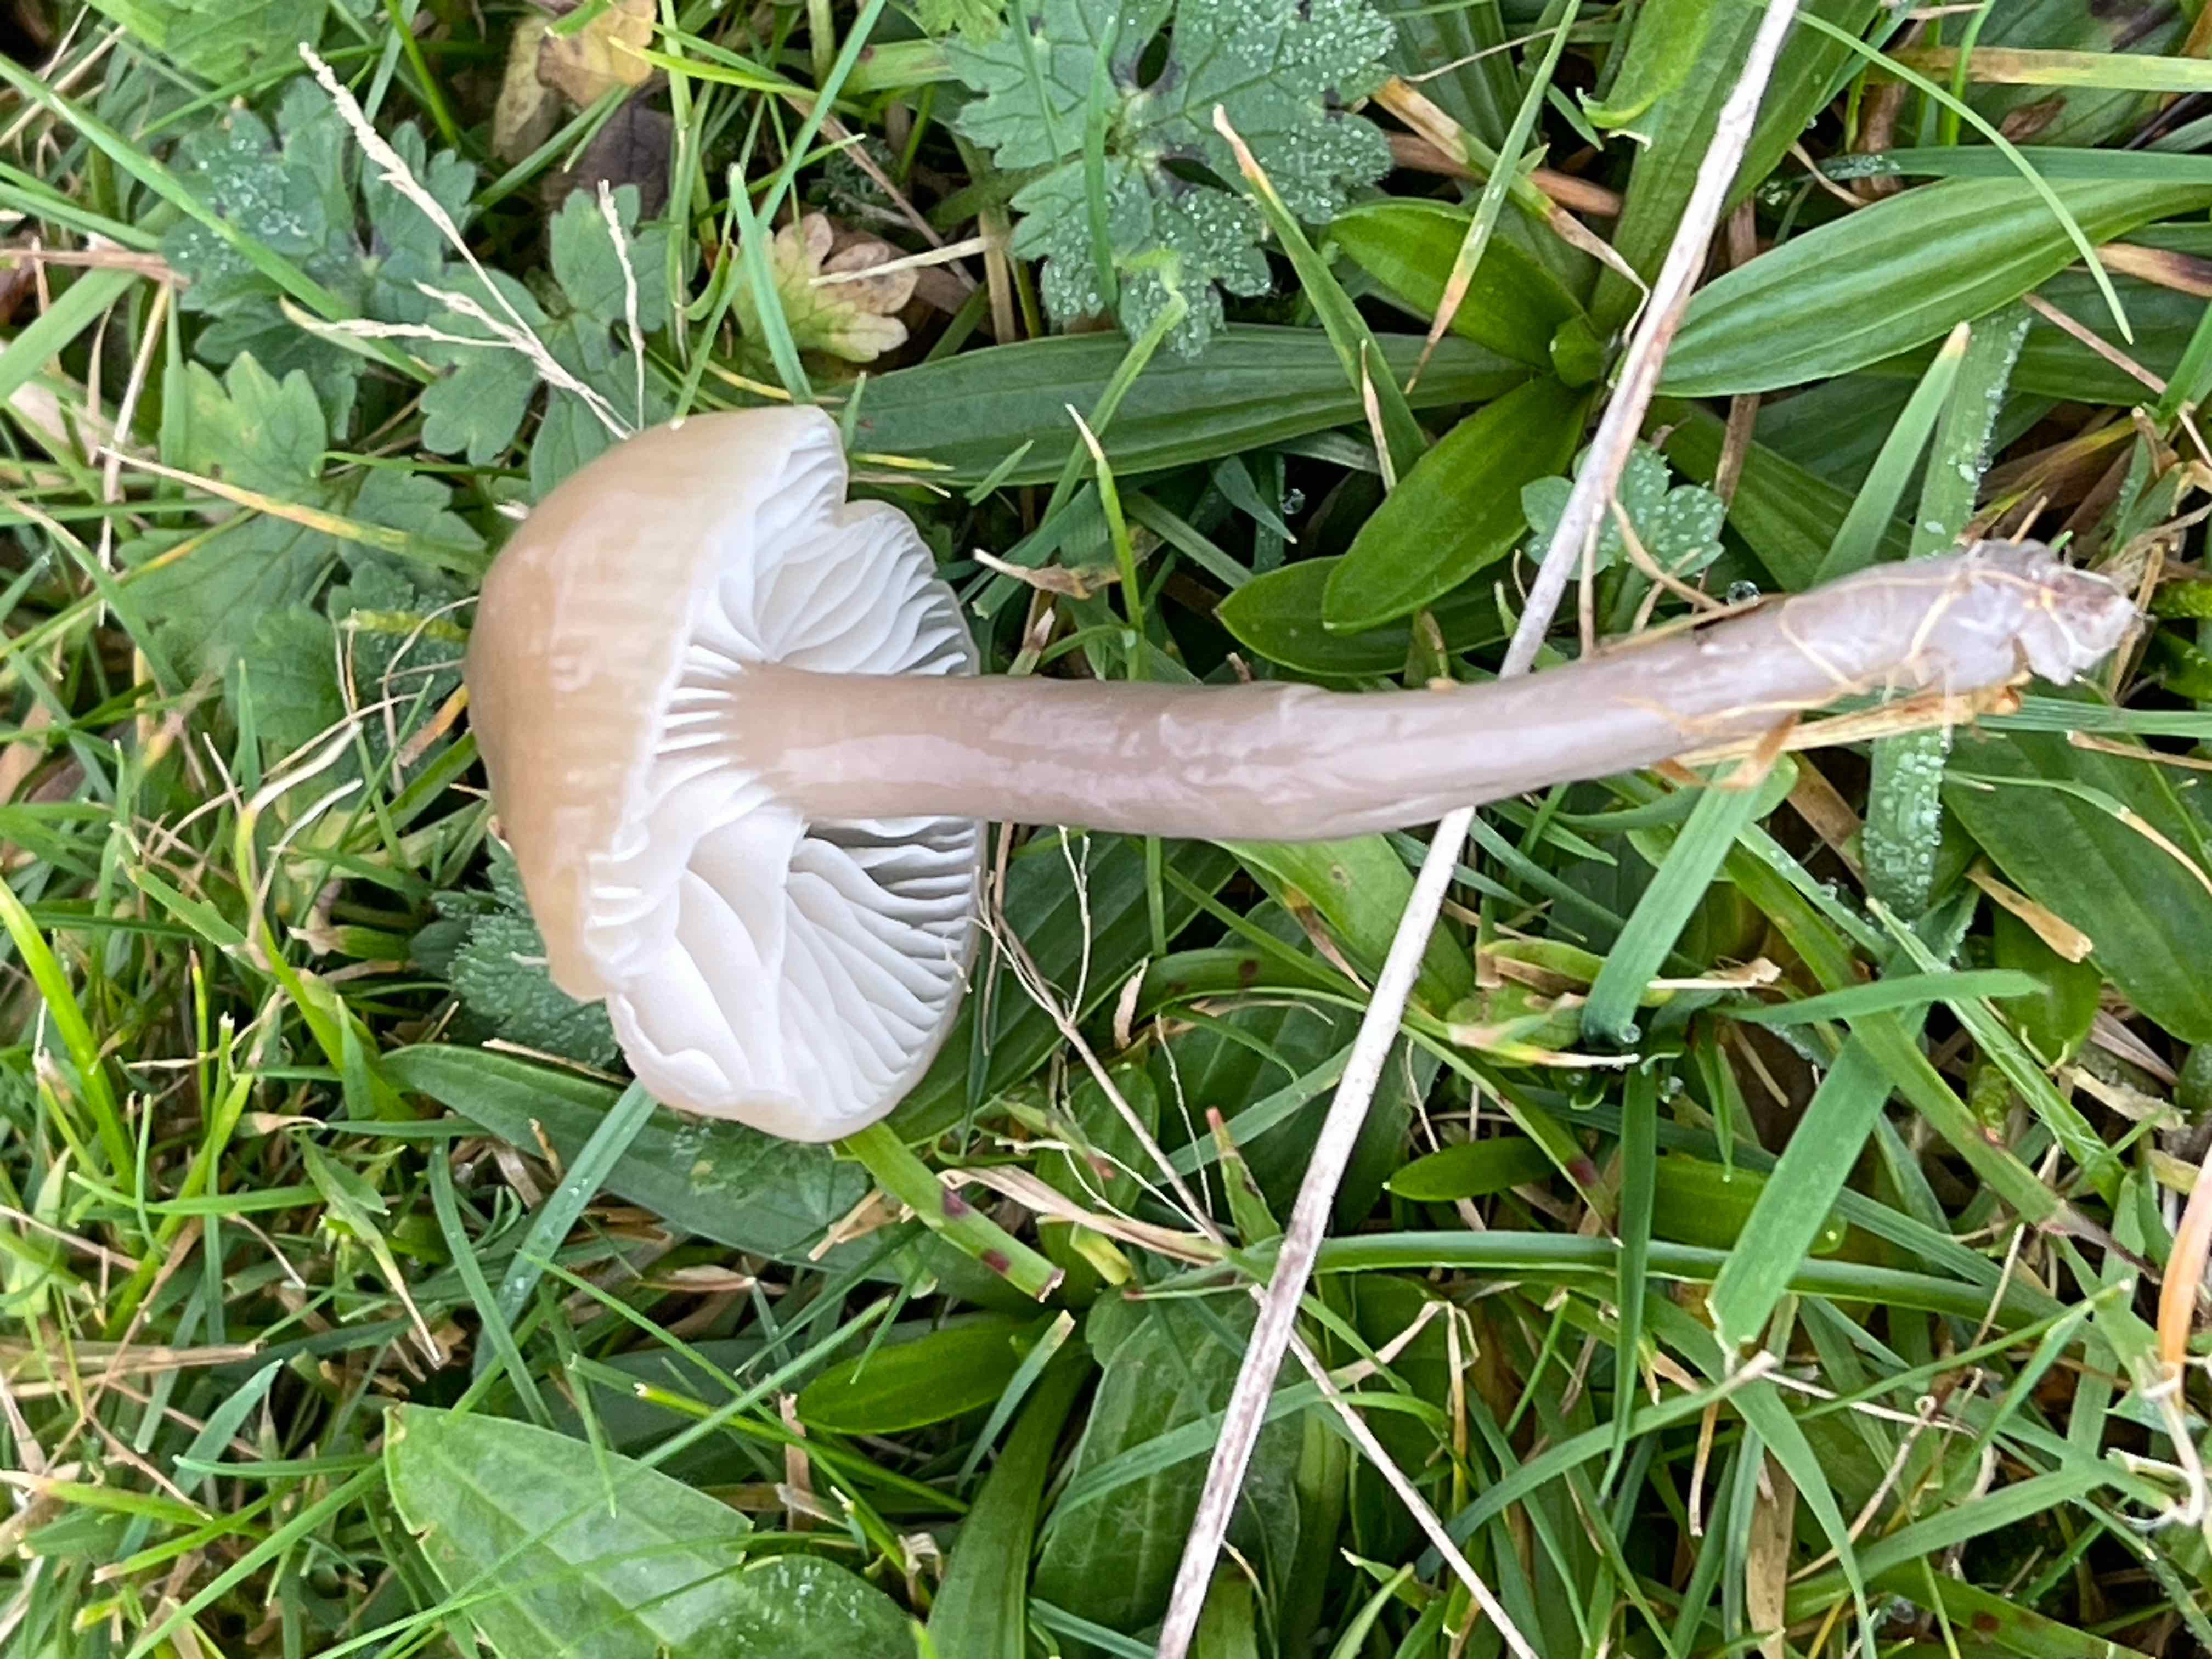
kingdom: Fungi
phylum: Basidiomycota
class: Agaricomycetes
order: Agaricales
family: Hygrophoraceae
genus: Gliophorus
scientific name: Gliophorus irrigatus
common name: slimet vokshat
